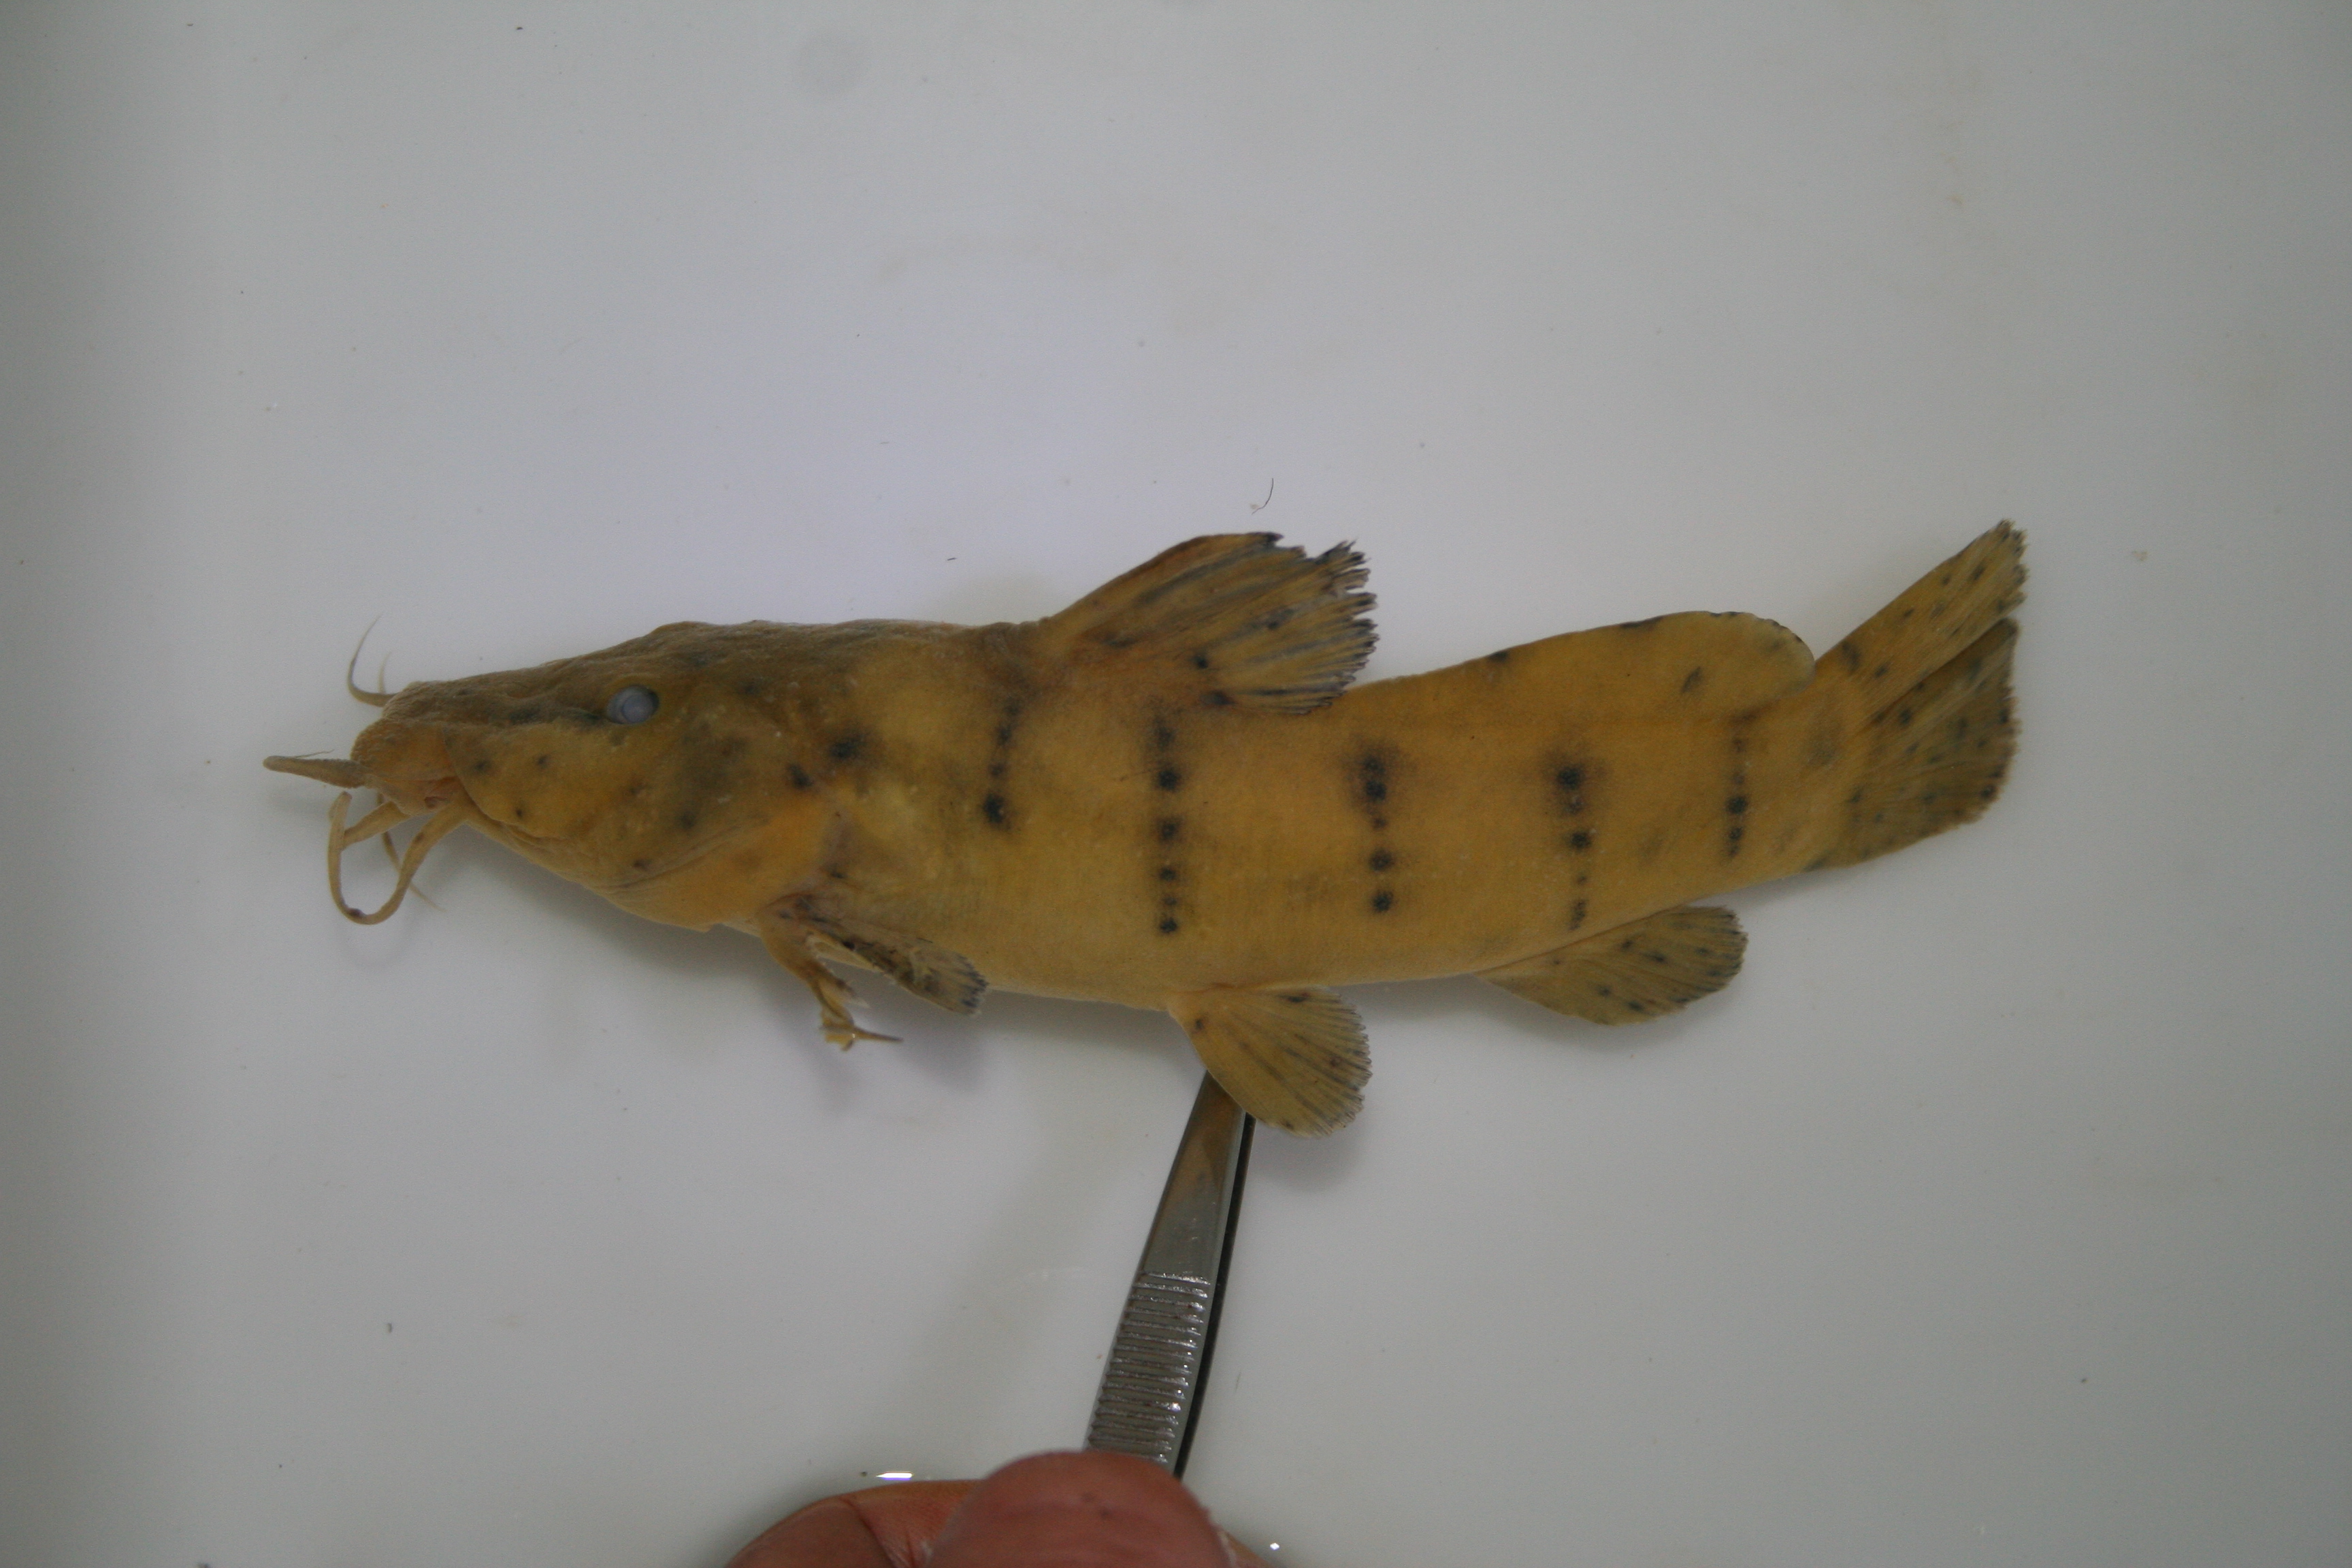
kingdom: Animalia
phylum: Chordata
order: Siluriformes
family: Claroteidae
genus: Parauchenoglanis
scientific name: Parauchenoglanis
